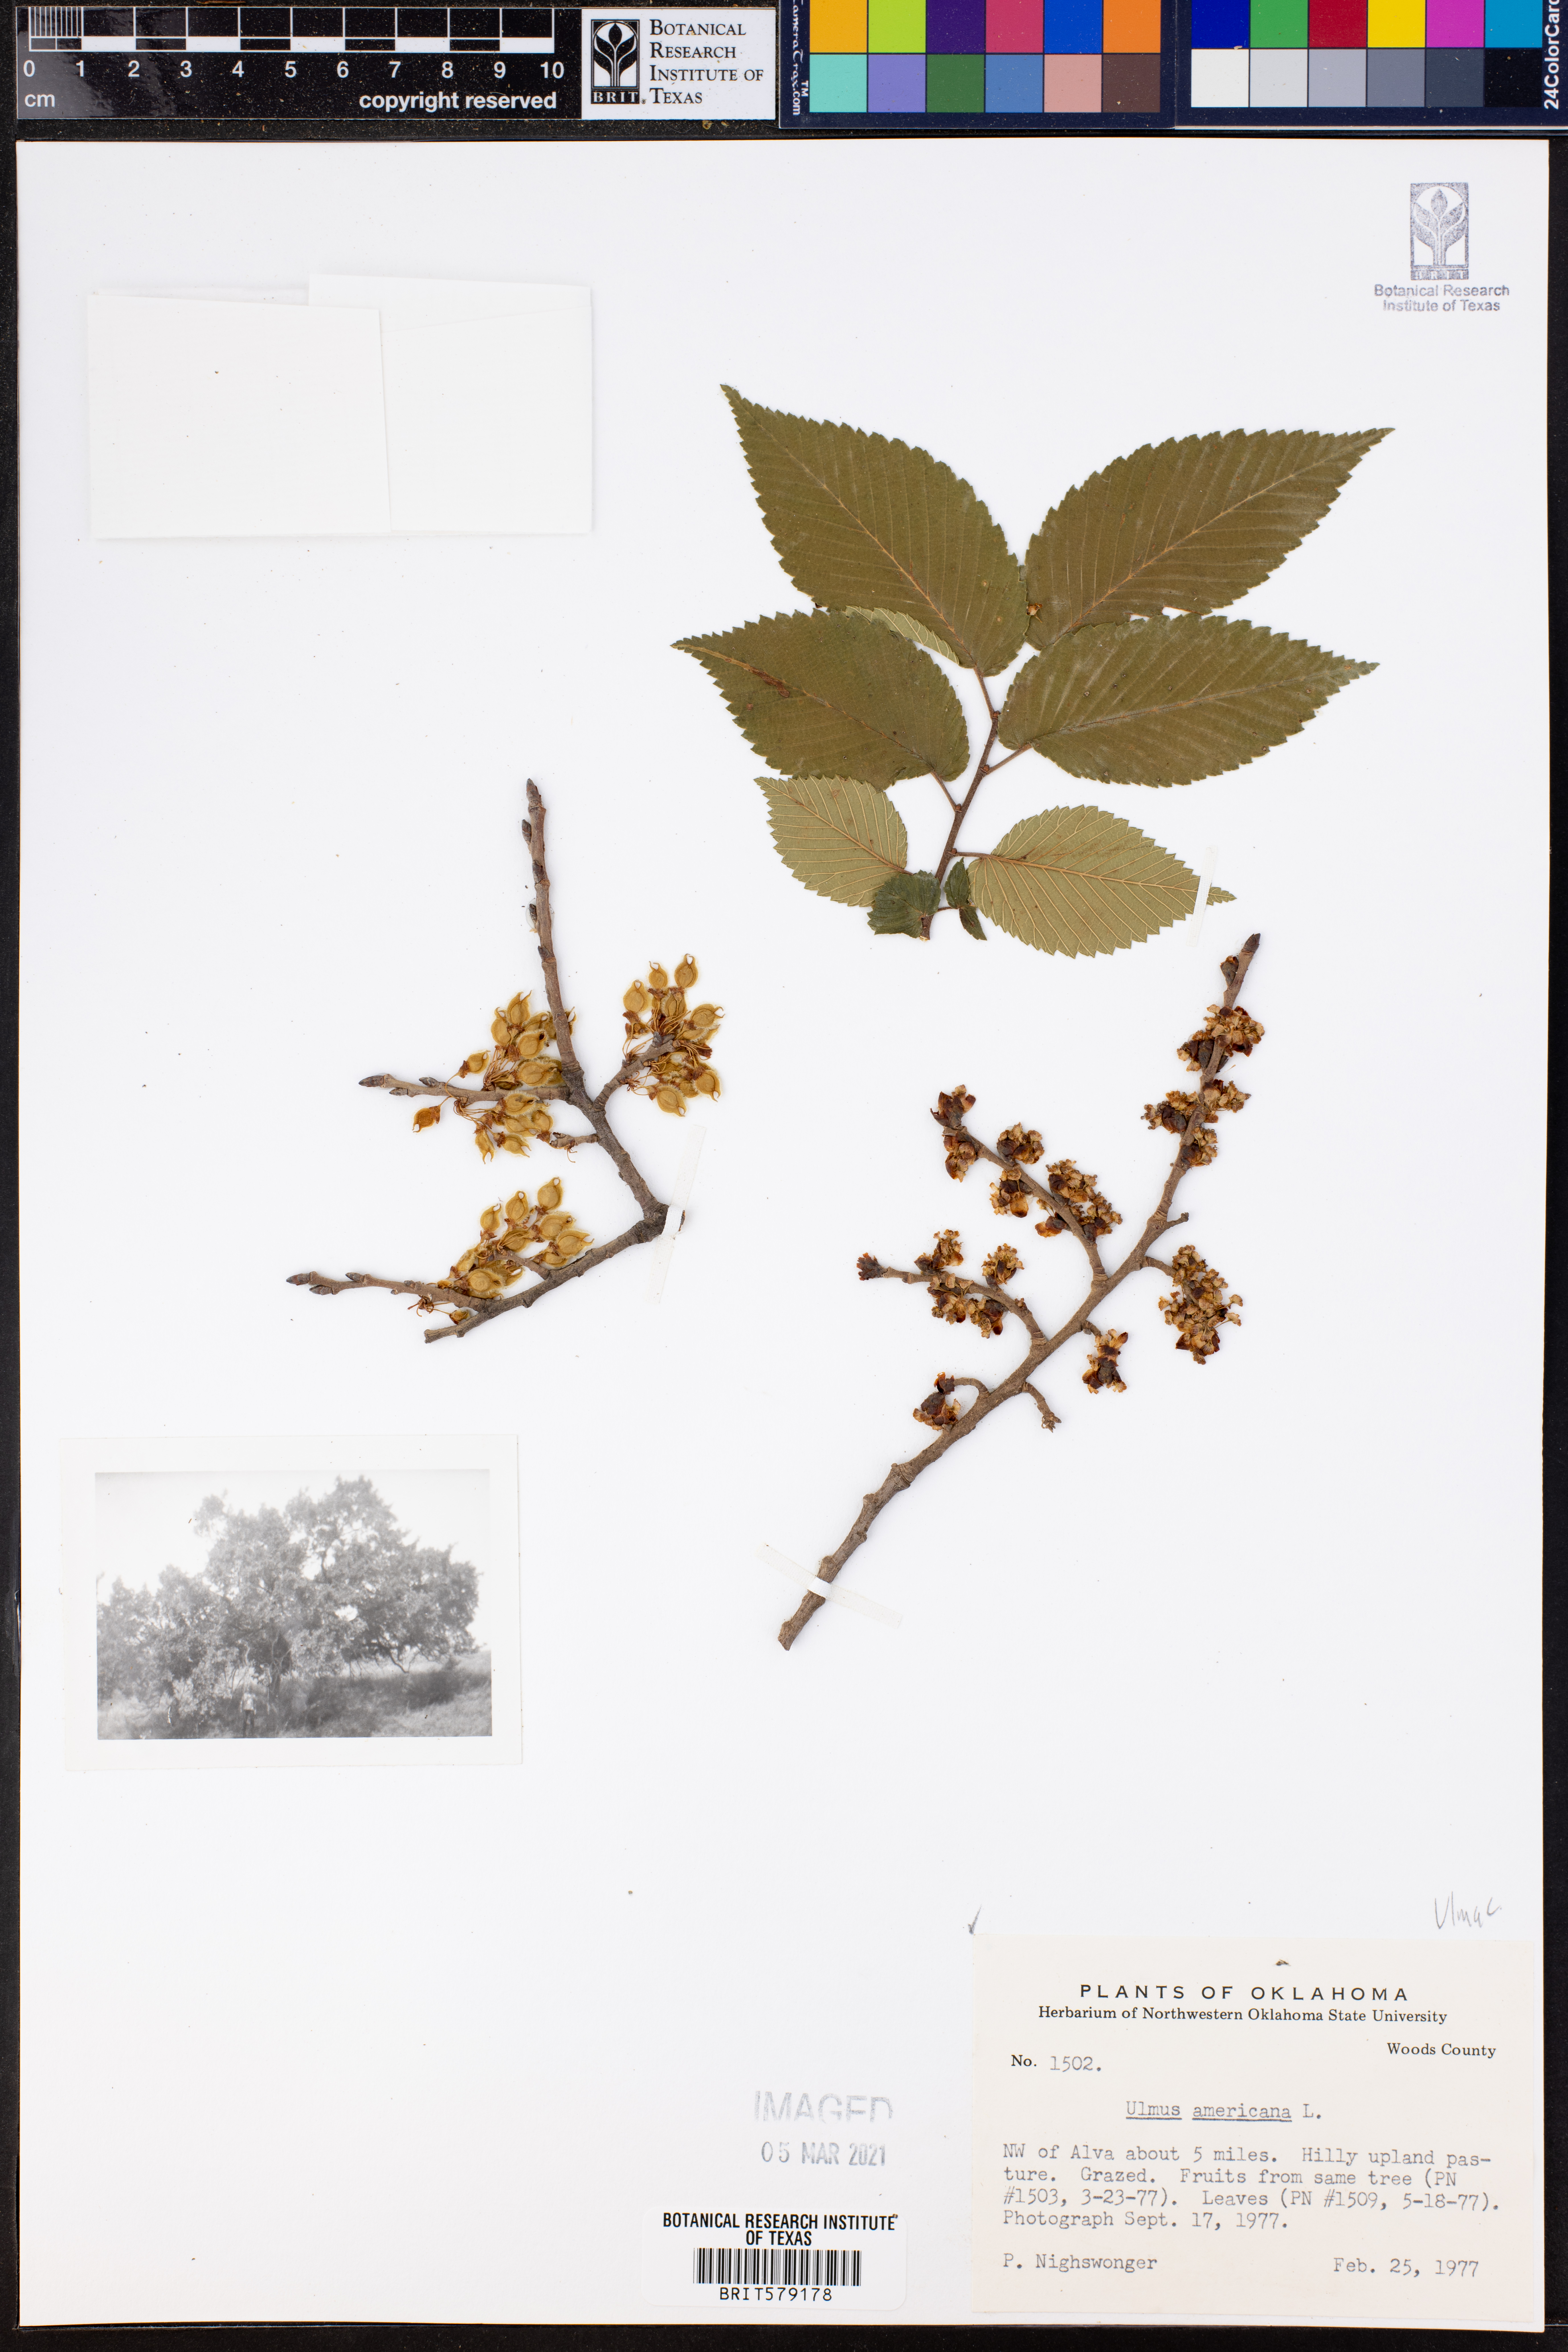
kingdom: Plantae
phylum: Tracheophyta
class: Magnoliopsida
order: Rosales
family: Ulmaceae
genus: Ulmus
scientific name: Ulmus americana
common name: American elm
